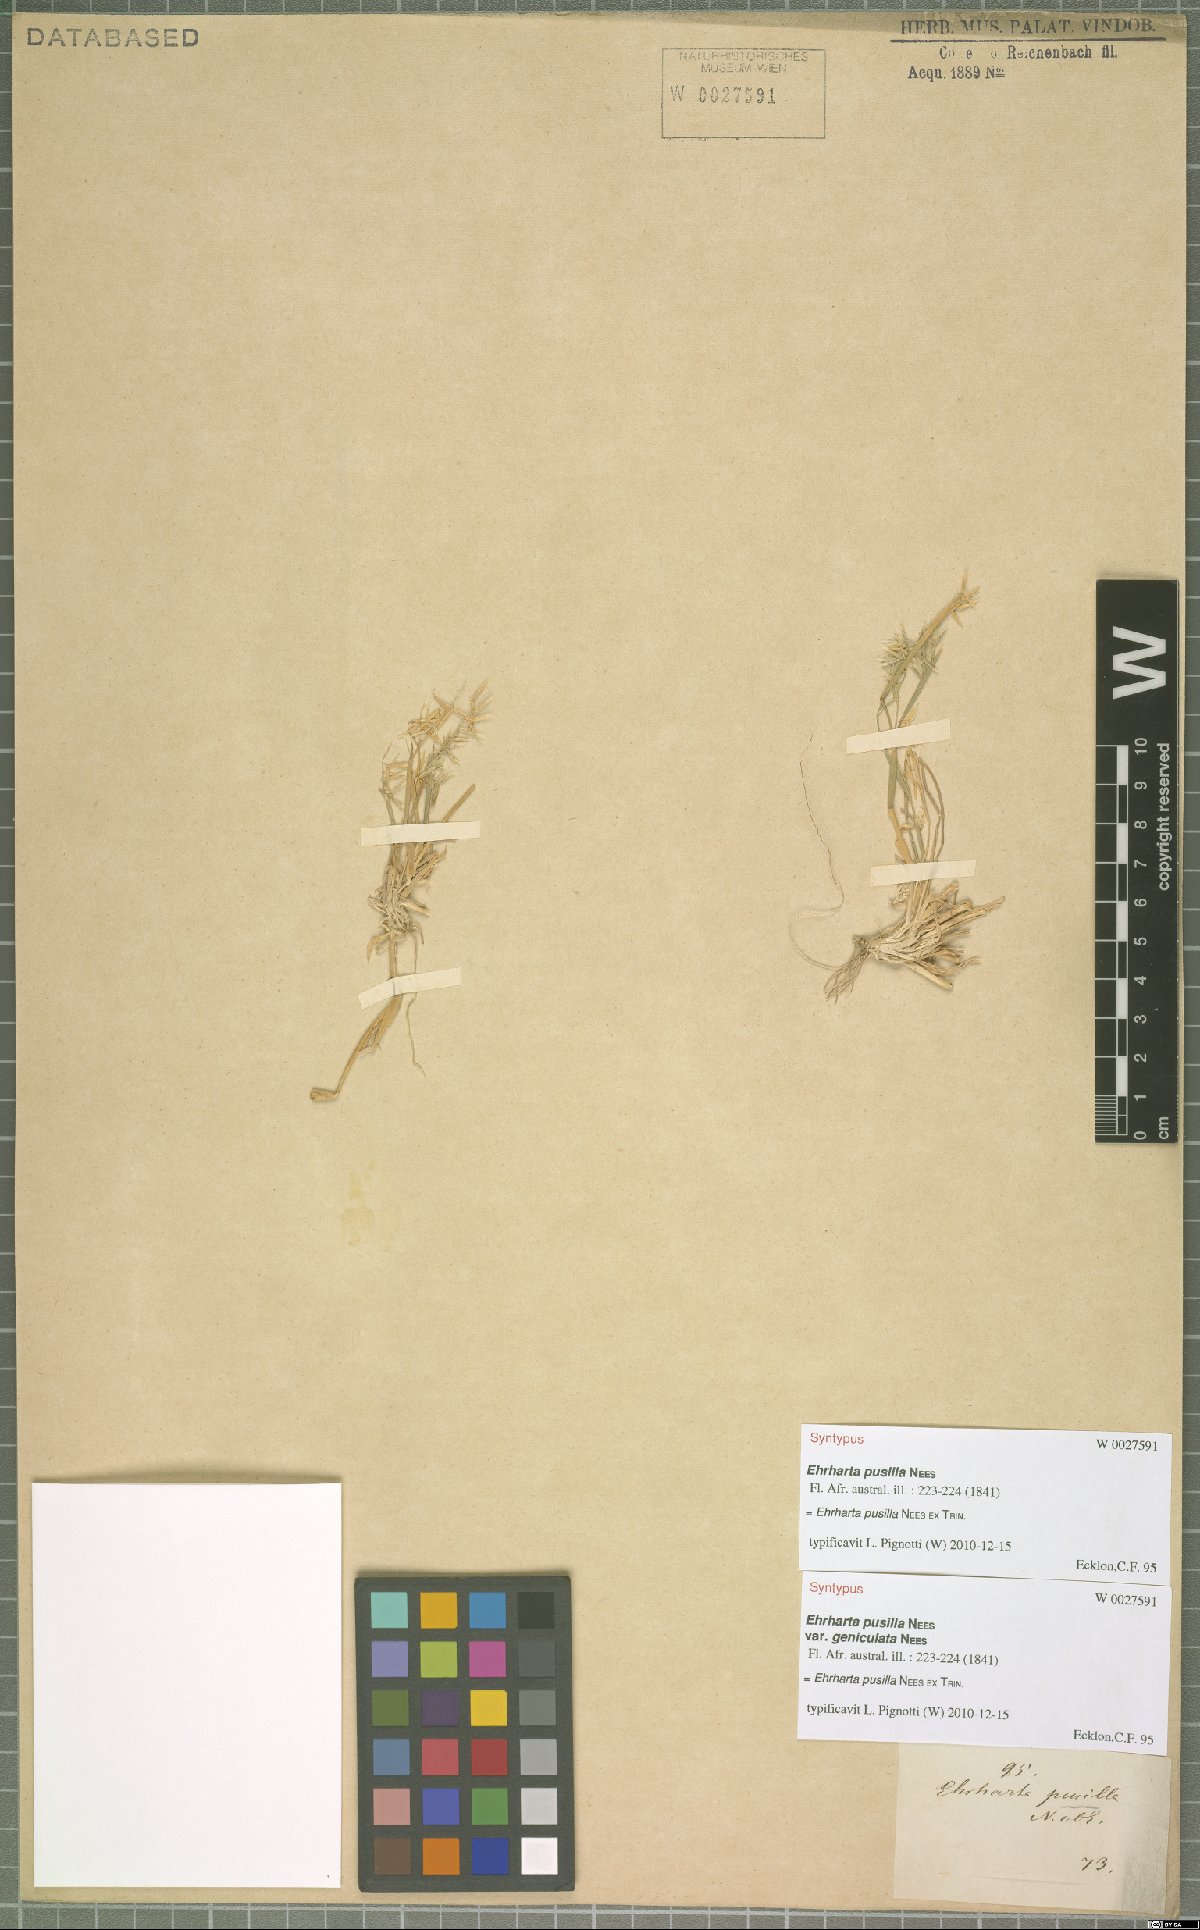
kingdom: Plantae
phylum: Tracheophyta
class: Liliopsida
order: Poales
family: Poaceae
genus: Ehrharta
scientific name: Ehrharta pusilla
